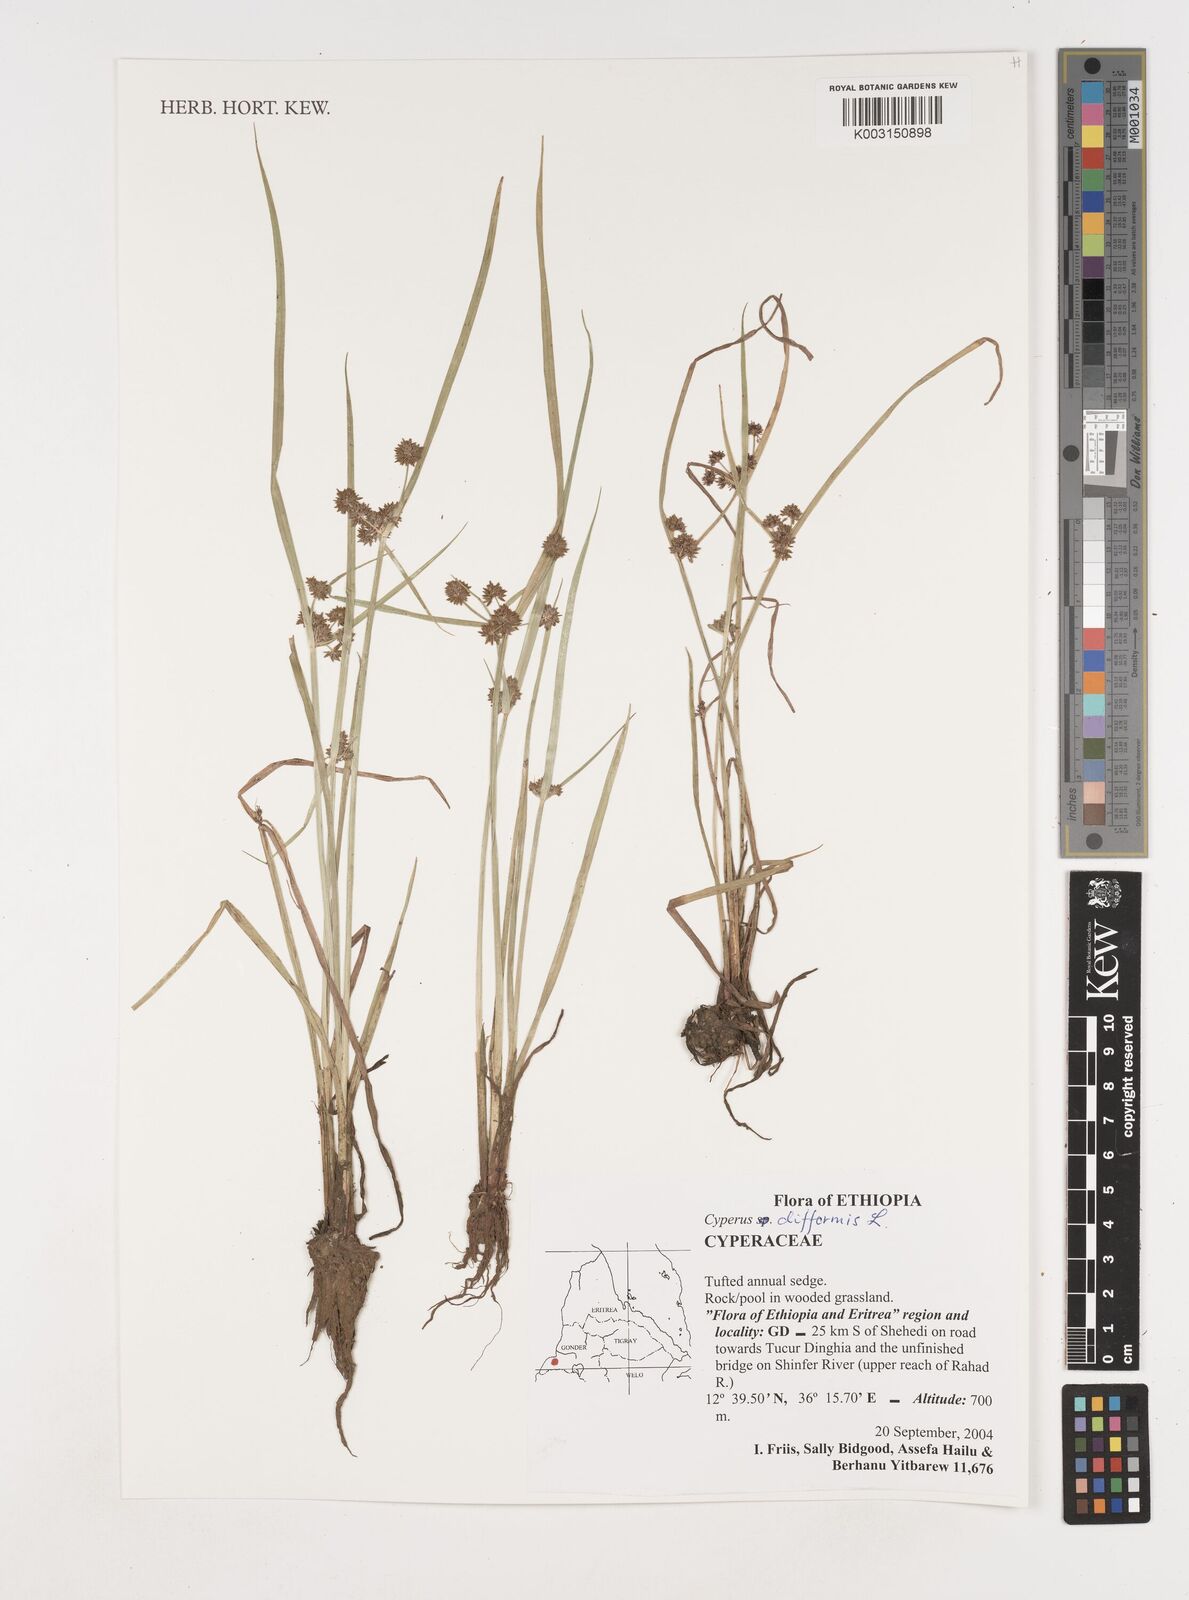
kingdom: Plantae
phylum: Tracheophyta
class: Liliopsida
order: Poales
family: Cyperaceae
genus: Cyperus
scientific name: Cyperus difformis
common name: Variable flatsedge
